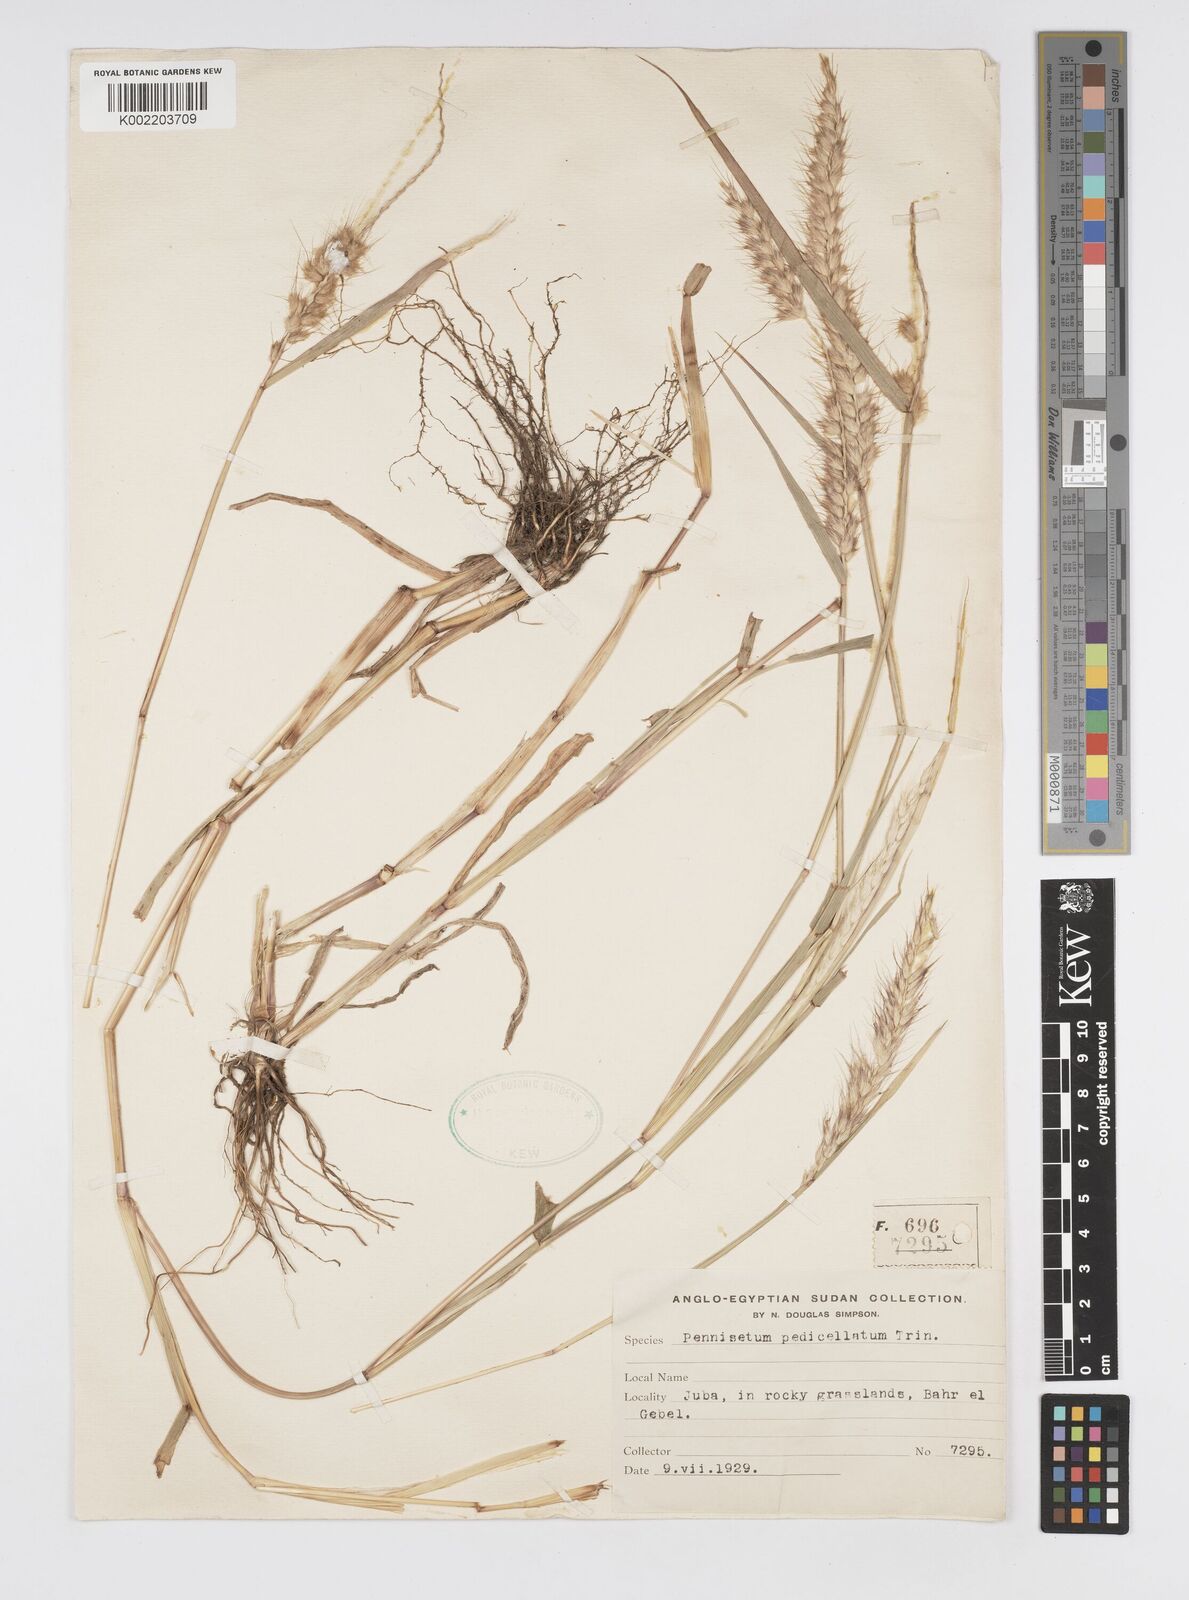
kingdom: Plantae
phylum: Tracheophyta
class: Liliopsida
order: Poales
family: Poaceae
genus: Cenchrus
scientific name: Cenchrus pedicellatus
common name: Hairy fountain grass
